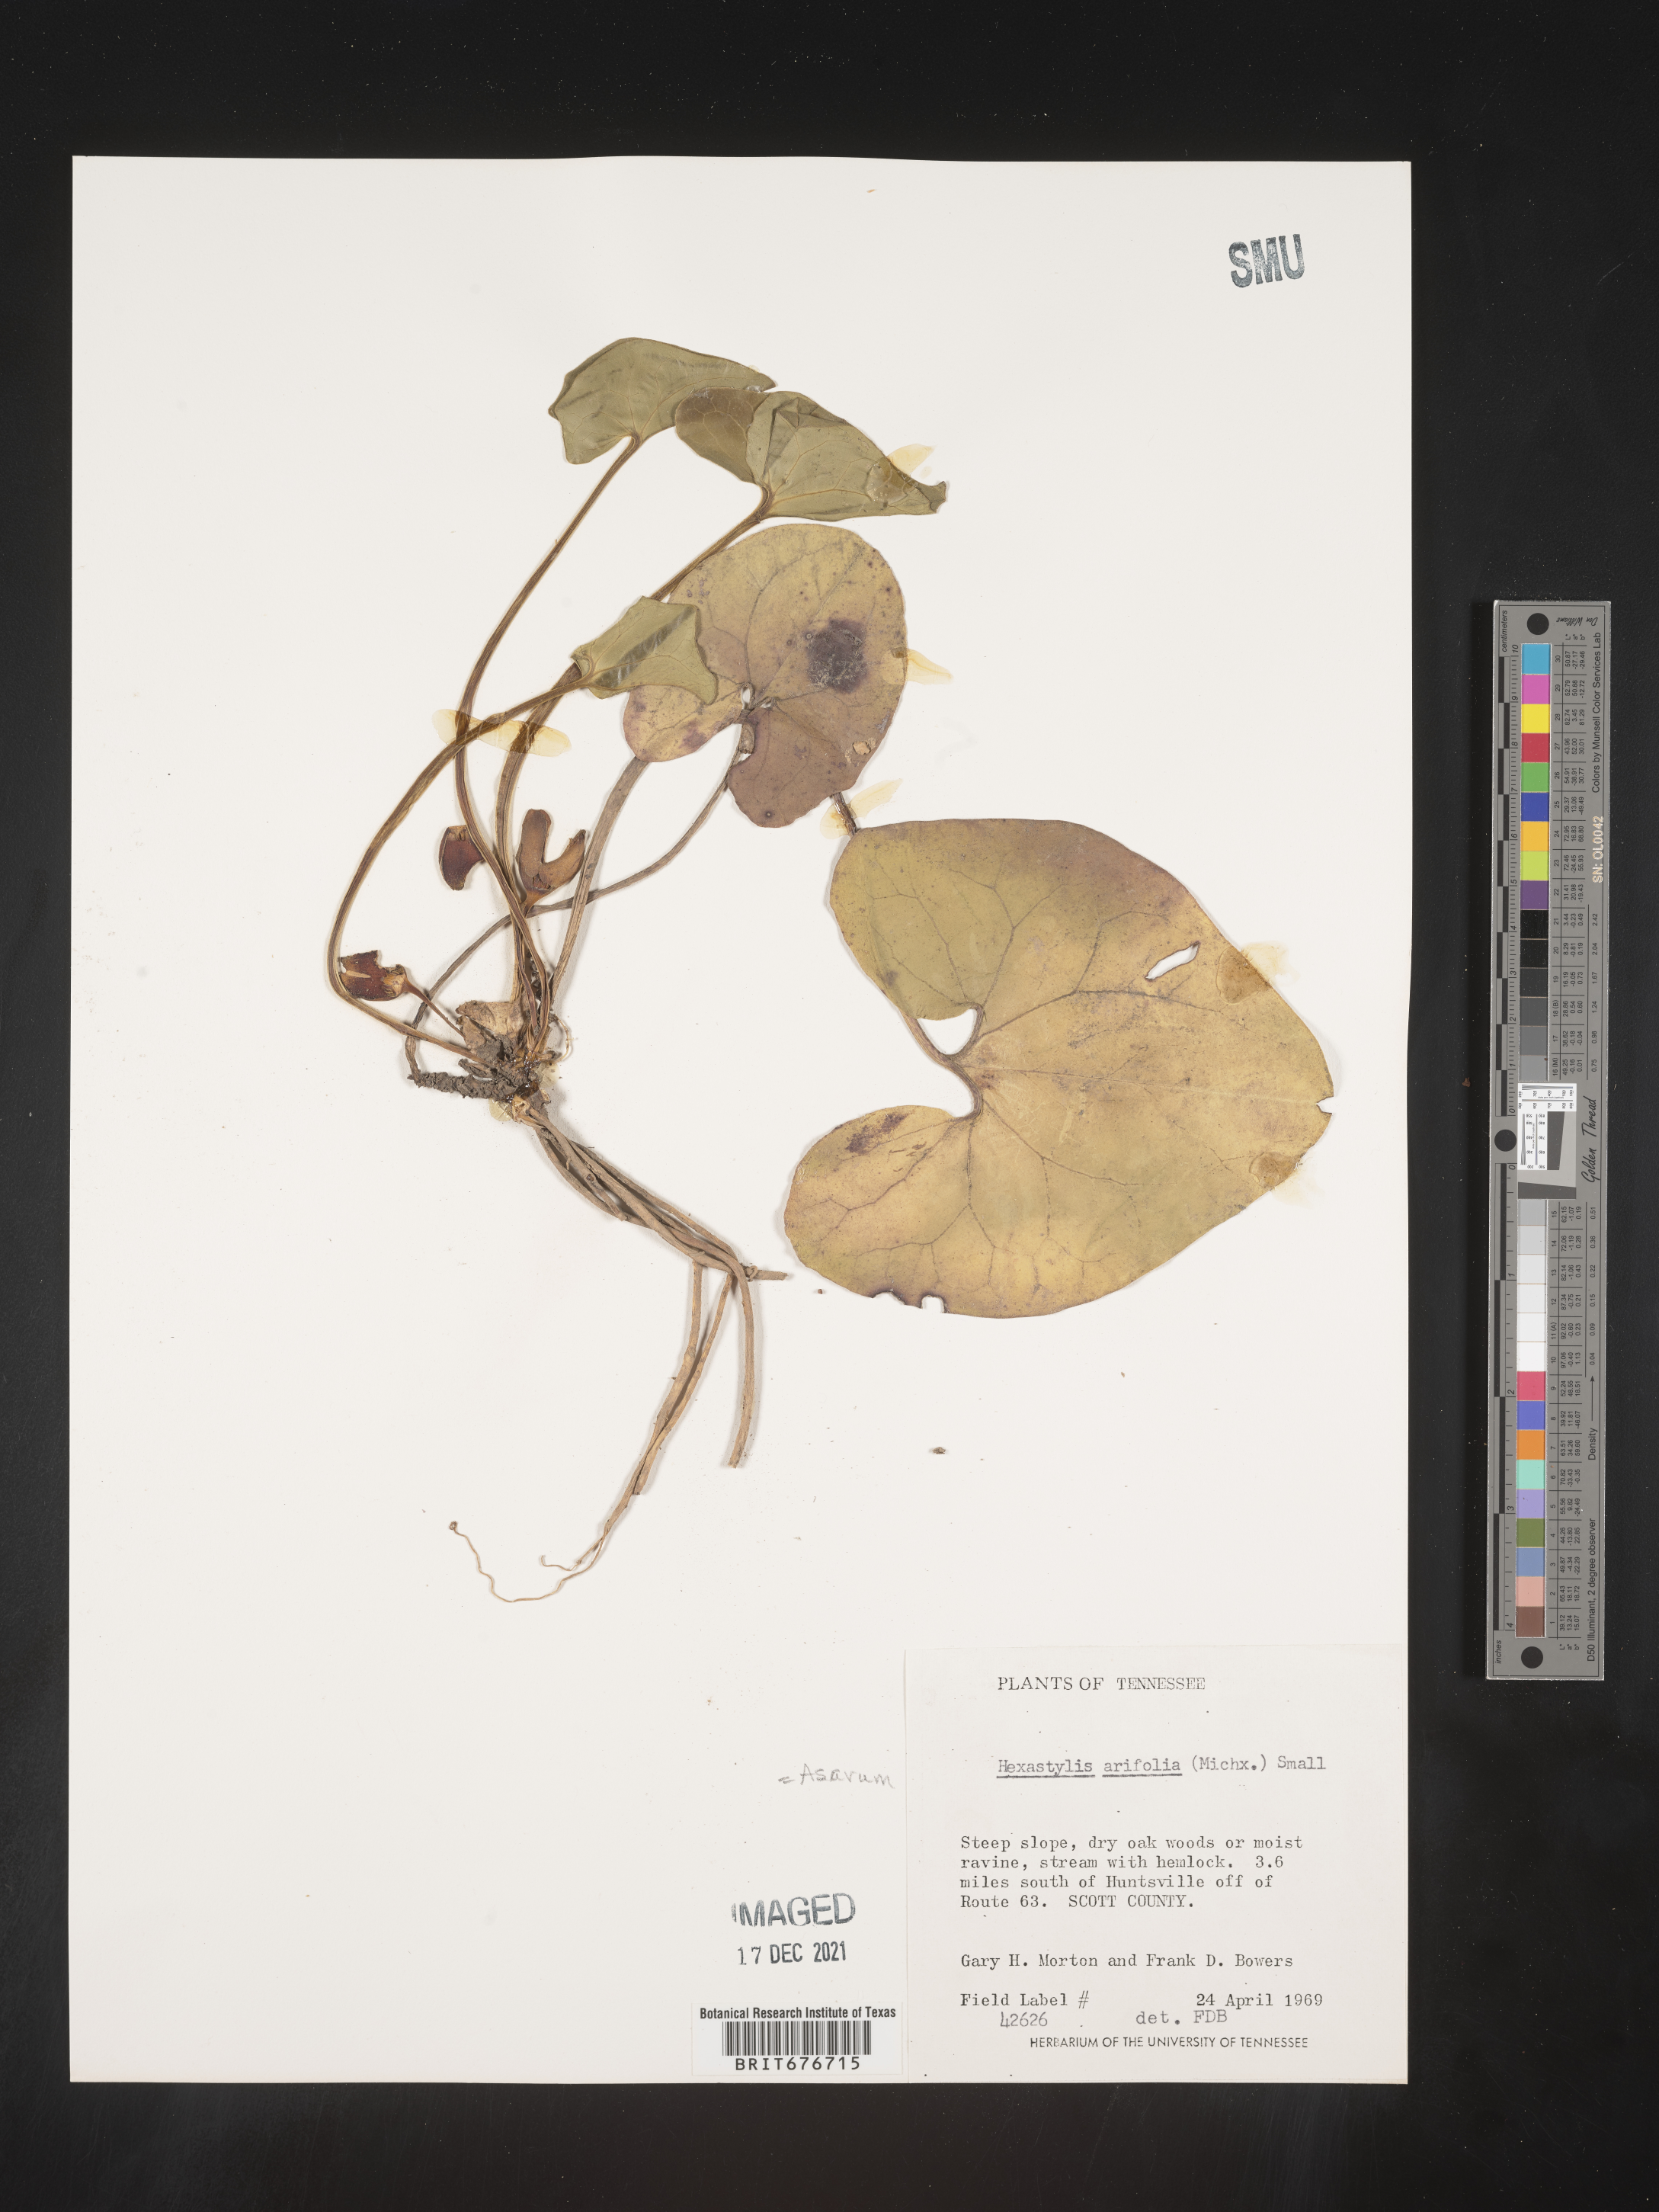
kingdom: Plantae
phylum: Tracheophyta
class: Magnoliopsida
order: Piperales
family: Aristolochiaceae
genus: Hexastylis
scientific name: Hexastylis arifolia
